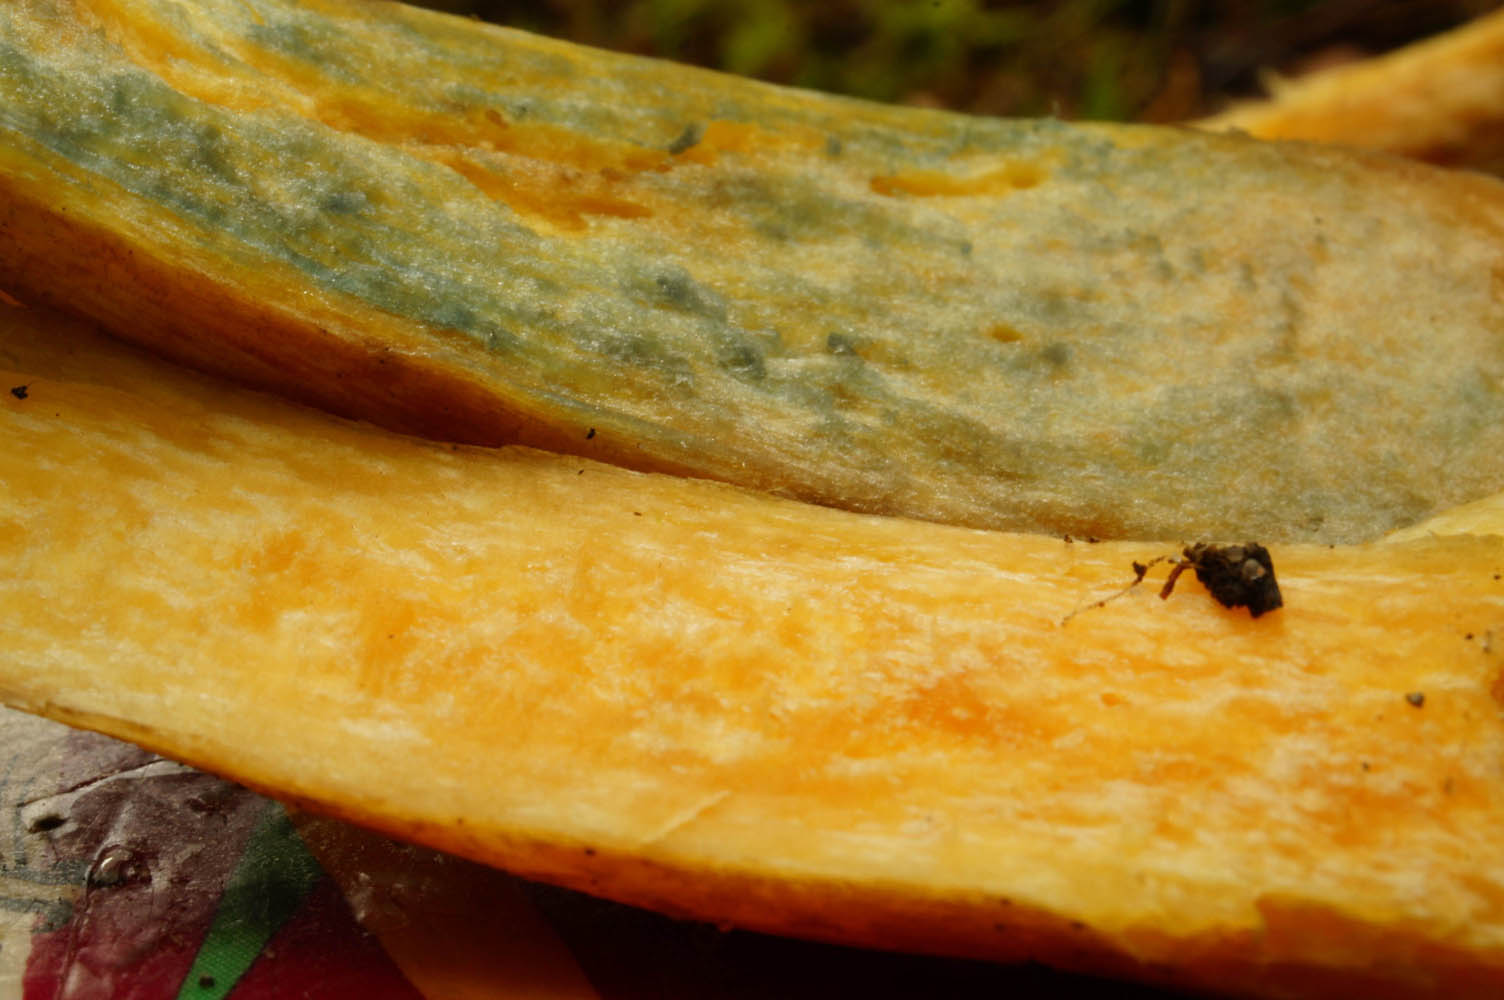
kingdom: Fungi
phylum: Basidiomycota
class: Agaricomycetes
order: Boletales
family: Suillaceae
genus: Suillus
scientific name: Suillus variegatus
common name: broget slimrørhat
